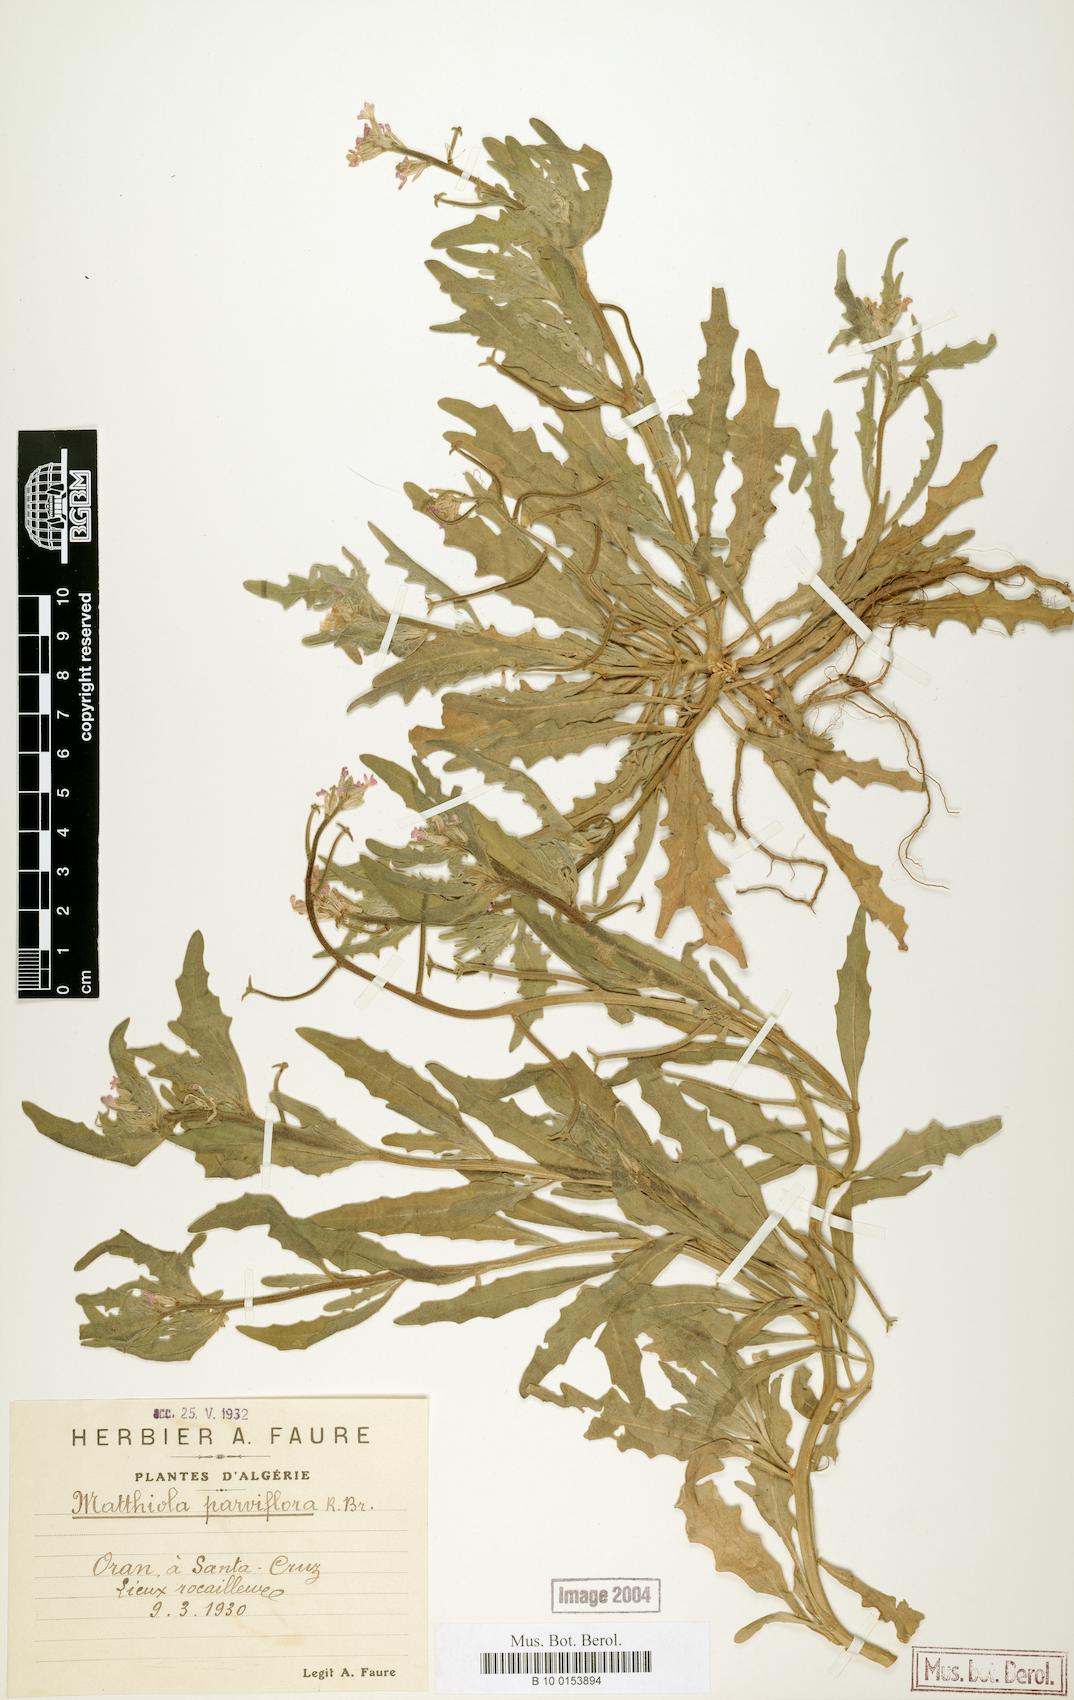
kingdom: Plantae
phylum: Tracheophyta
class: Magnoliopsida
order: Brassicales
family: Brassicaceae
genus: Matthiola
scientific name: Matthiola parviflora
